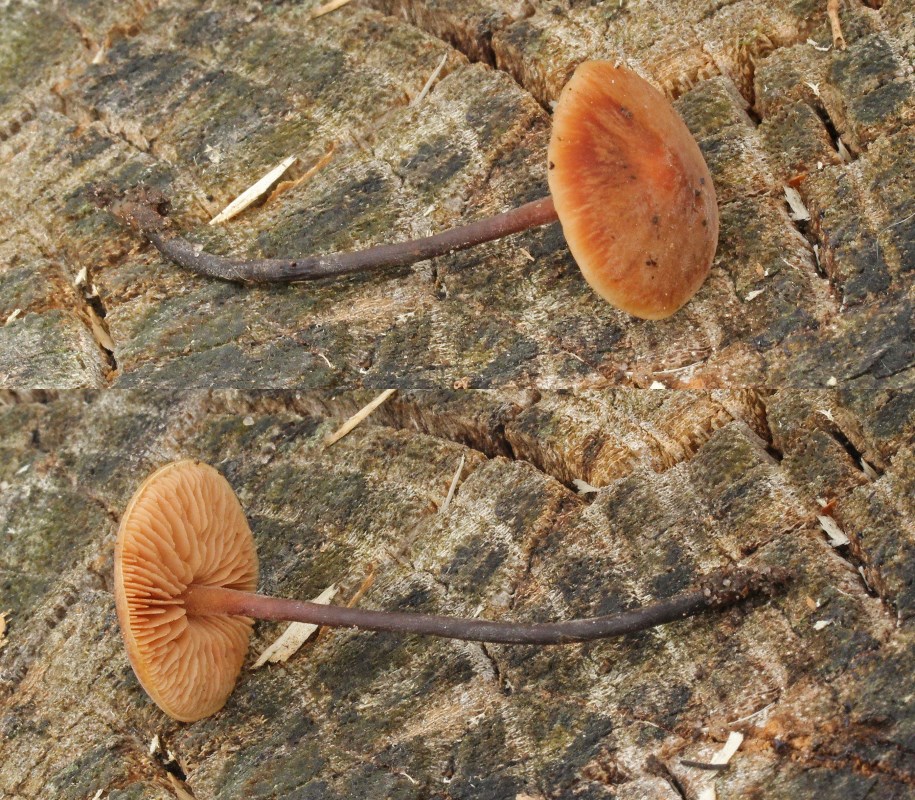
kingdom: Fungi
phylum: Basidiomycota
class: Agaricomycetes
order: Agaricales
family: Macrocystidiaceae
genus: Macrocystidia
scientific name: Macrocystidia cucumis
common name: agurkehat
